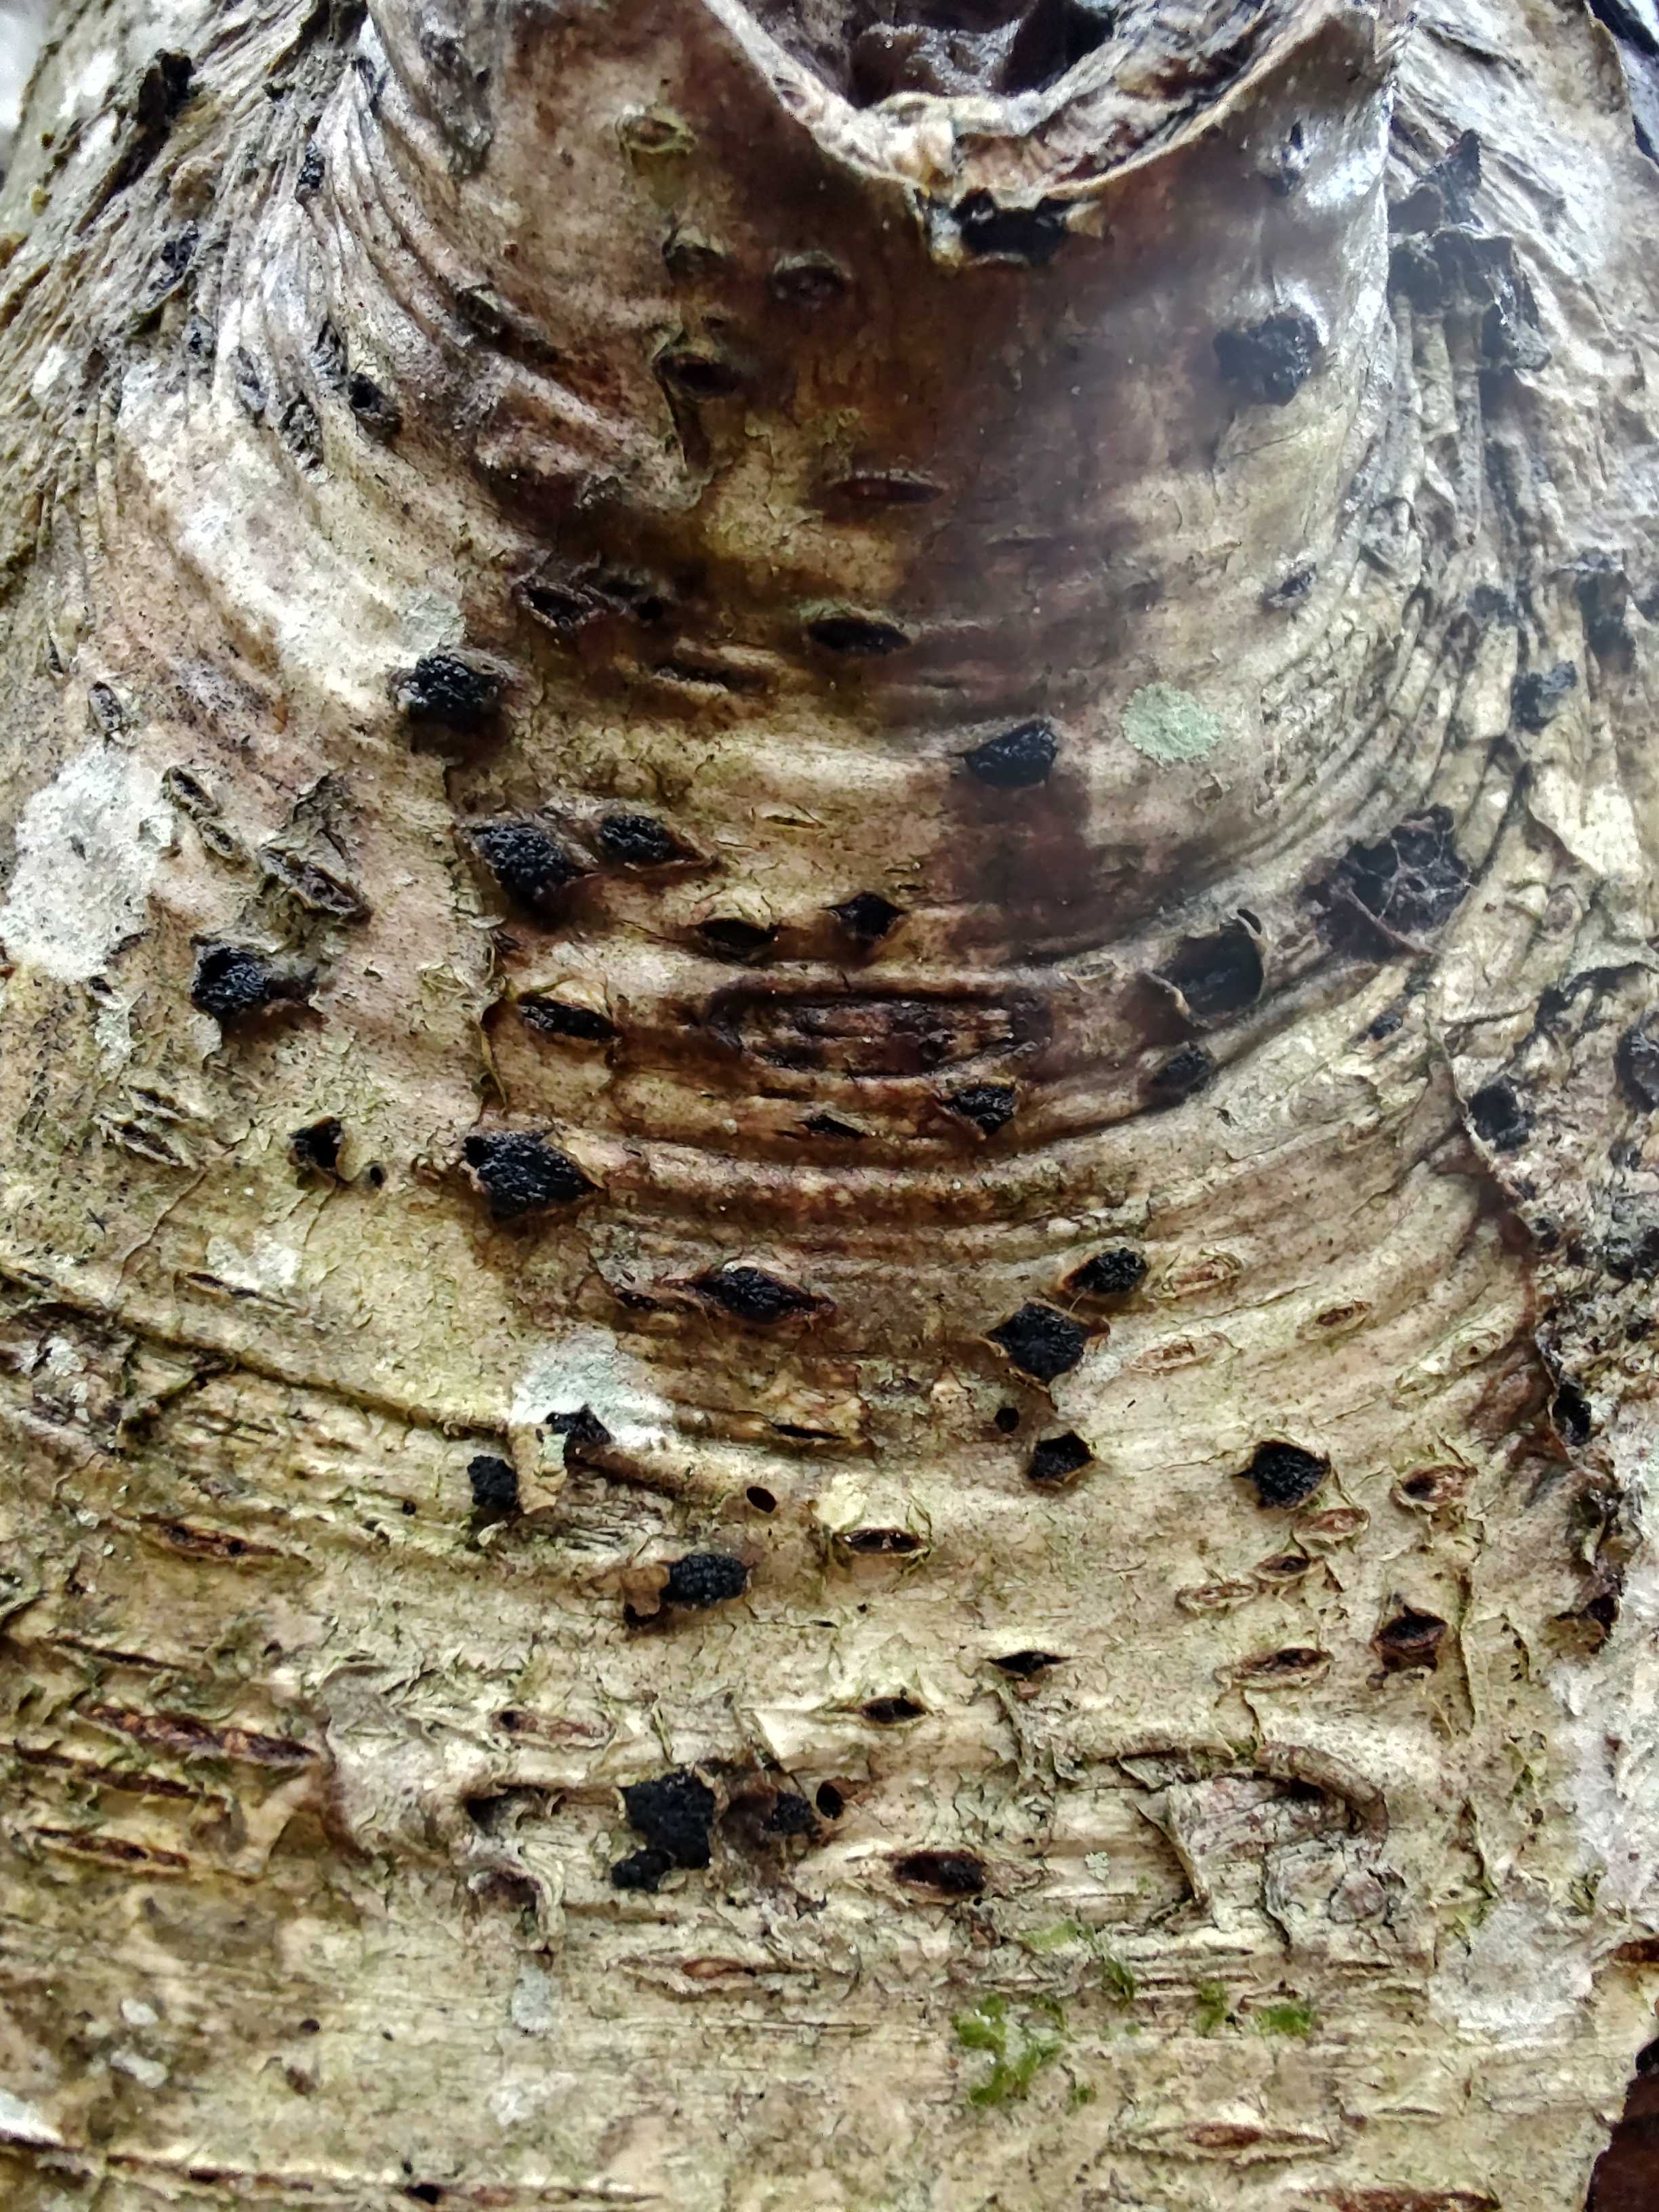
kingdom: Fungi
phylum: Ascomycota
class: Sordariomycetes
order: Xylariales
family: Diatrypaceae
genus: Eutypella
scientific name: Eutypella sorbi
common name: rønne-kulskorpe
